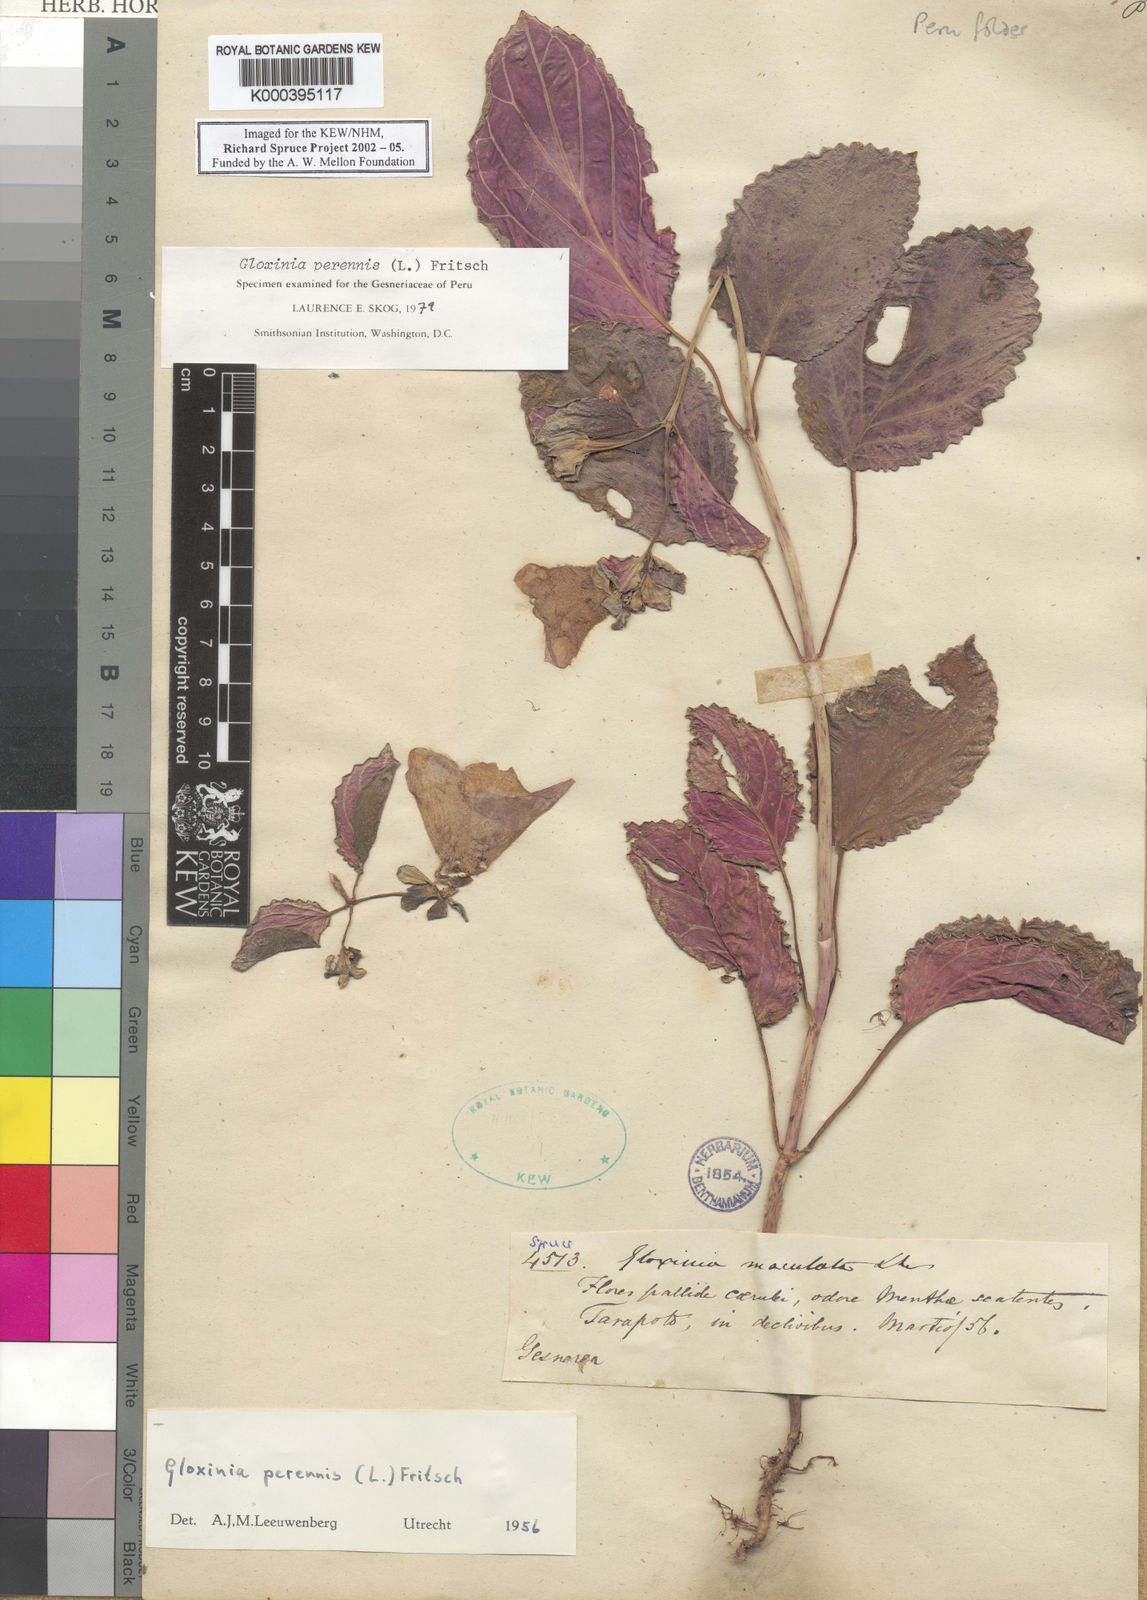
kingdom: Plantae
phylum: Tracheophyta
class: Magnoliopsida
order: Lamiales
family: Gesneriaceae
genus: Gloxinia
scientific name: Gloxinia
